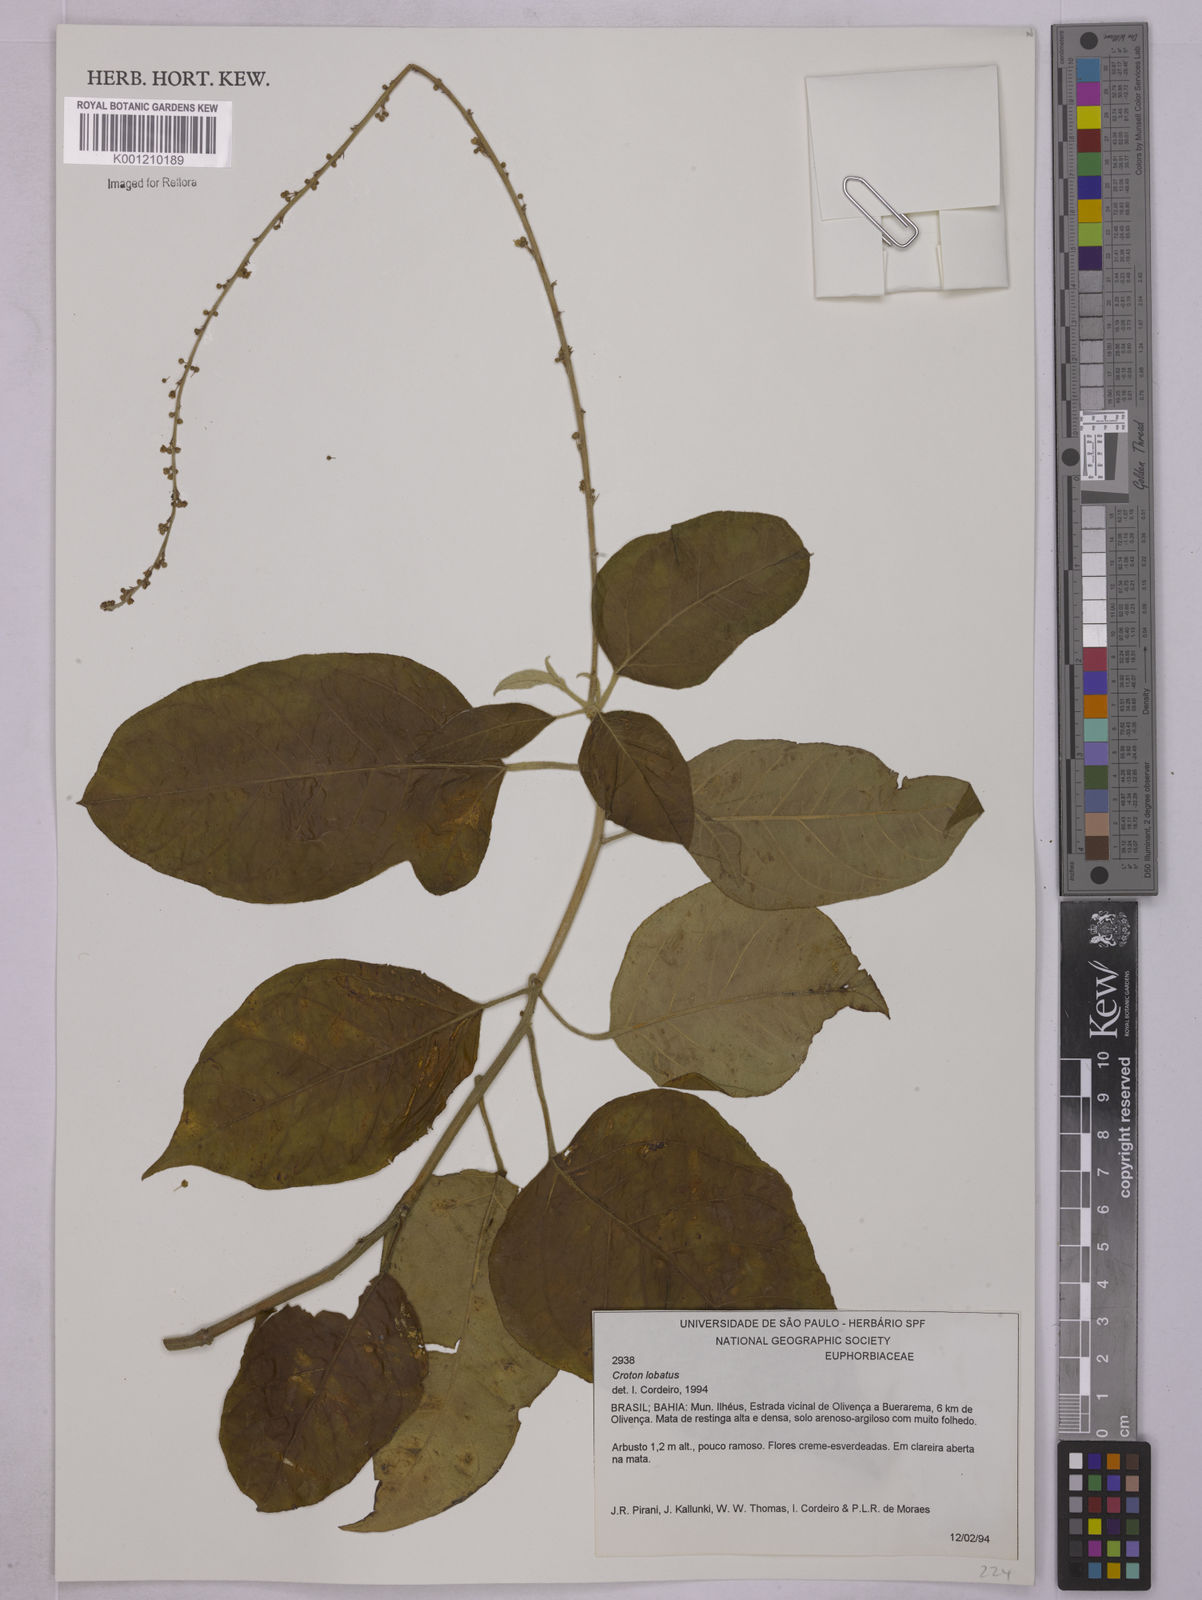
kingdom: Plantae
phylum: Tracheophyta
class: Magnoliopsida
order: Malpighiales
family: Euphorbiaceae
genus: Astraea
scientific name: Astraea lobata
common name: Lobed croton
